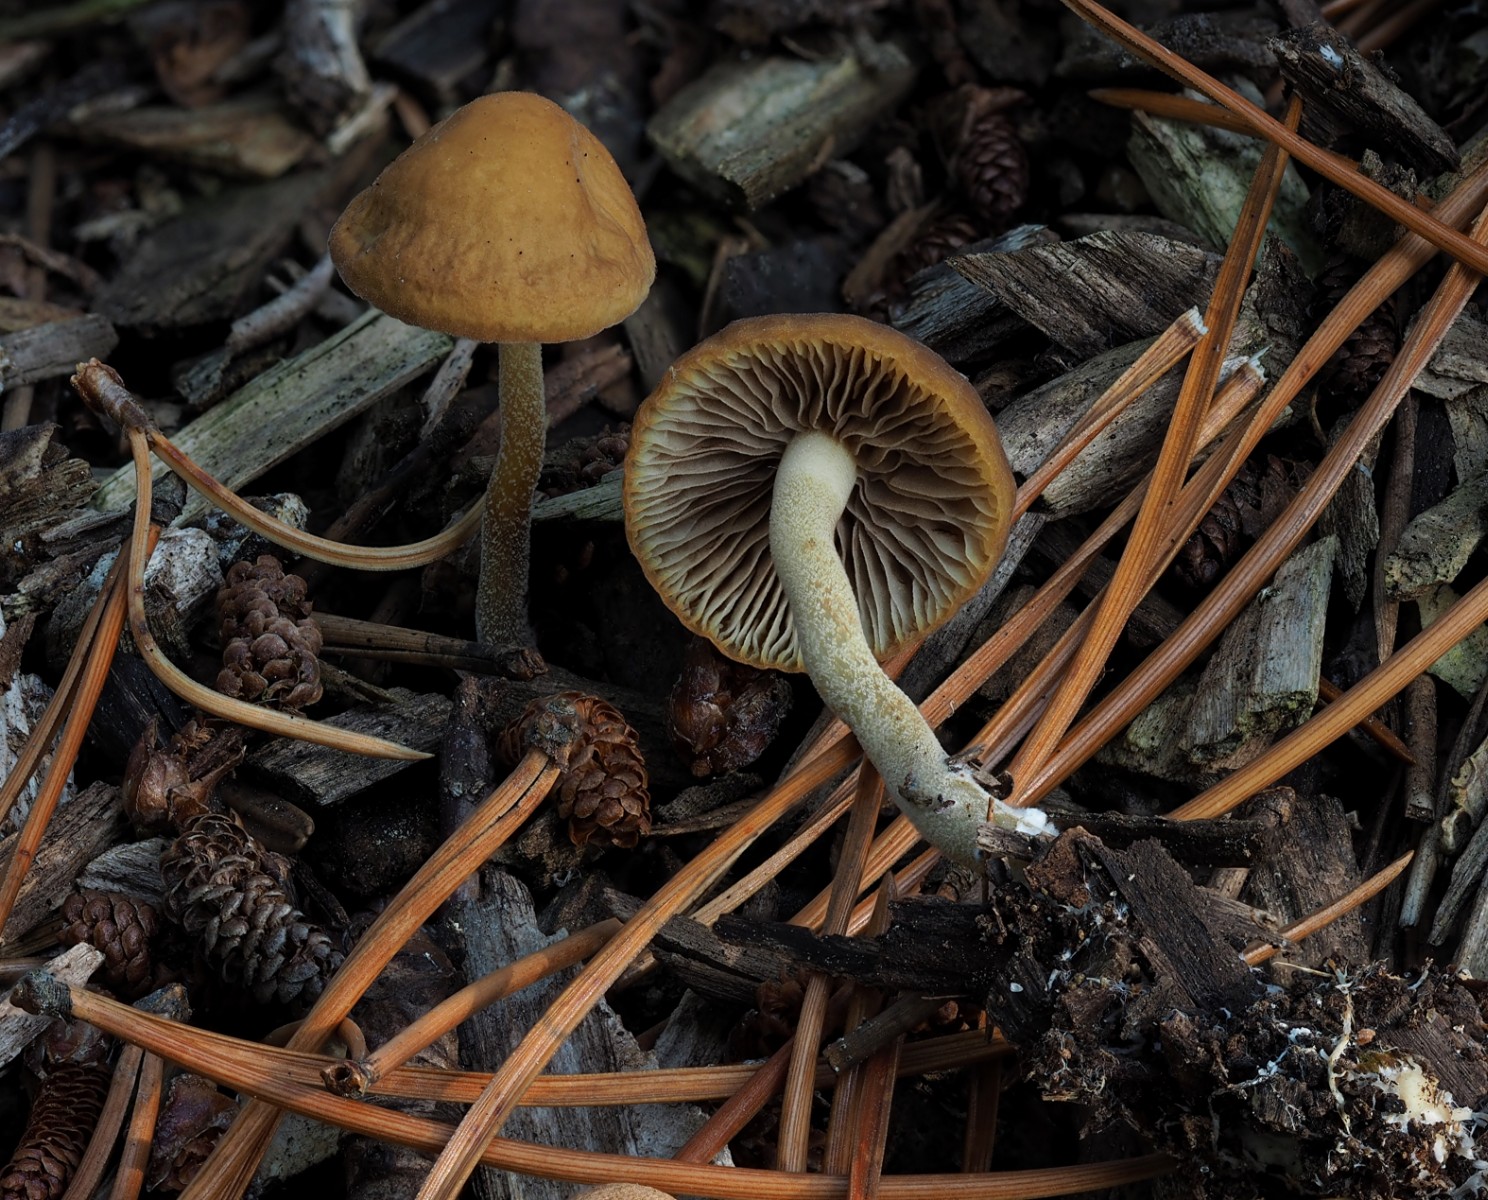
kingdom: Fungi
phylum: Basidiomycota
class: Agaricomycetes
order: Agaricales
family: Strophariaceae
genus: Agrocybe
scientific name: Agrocybe arvalis
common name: rodslående agerhat
